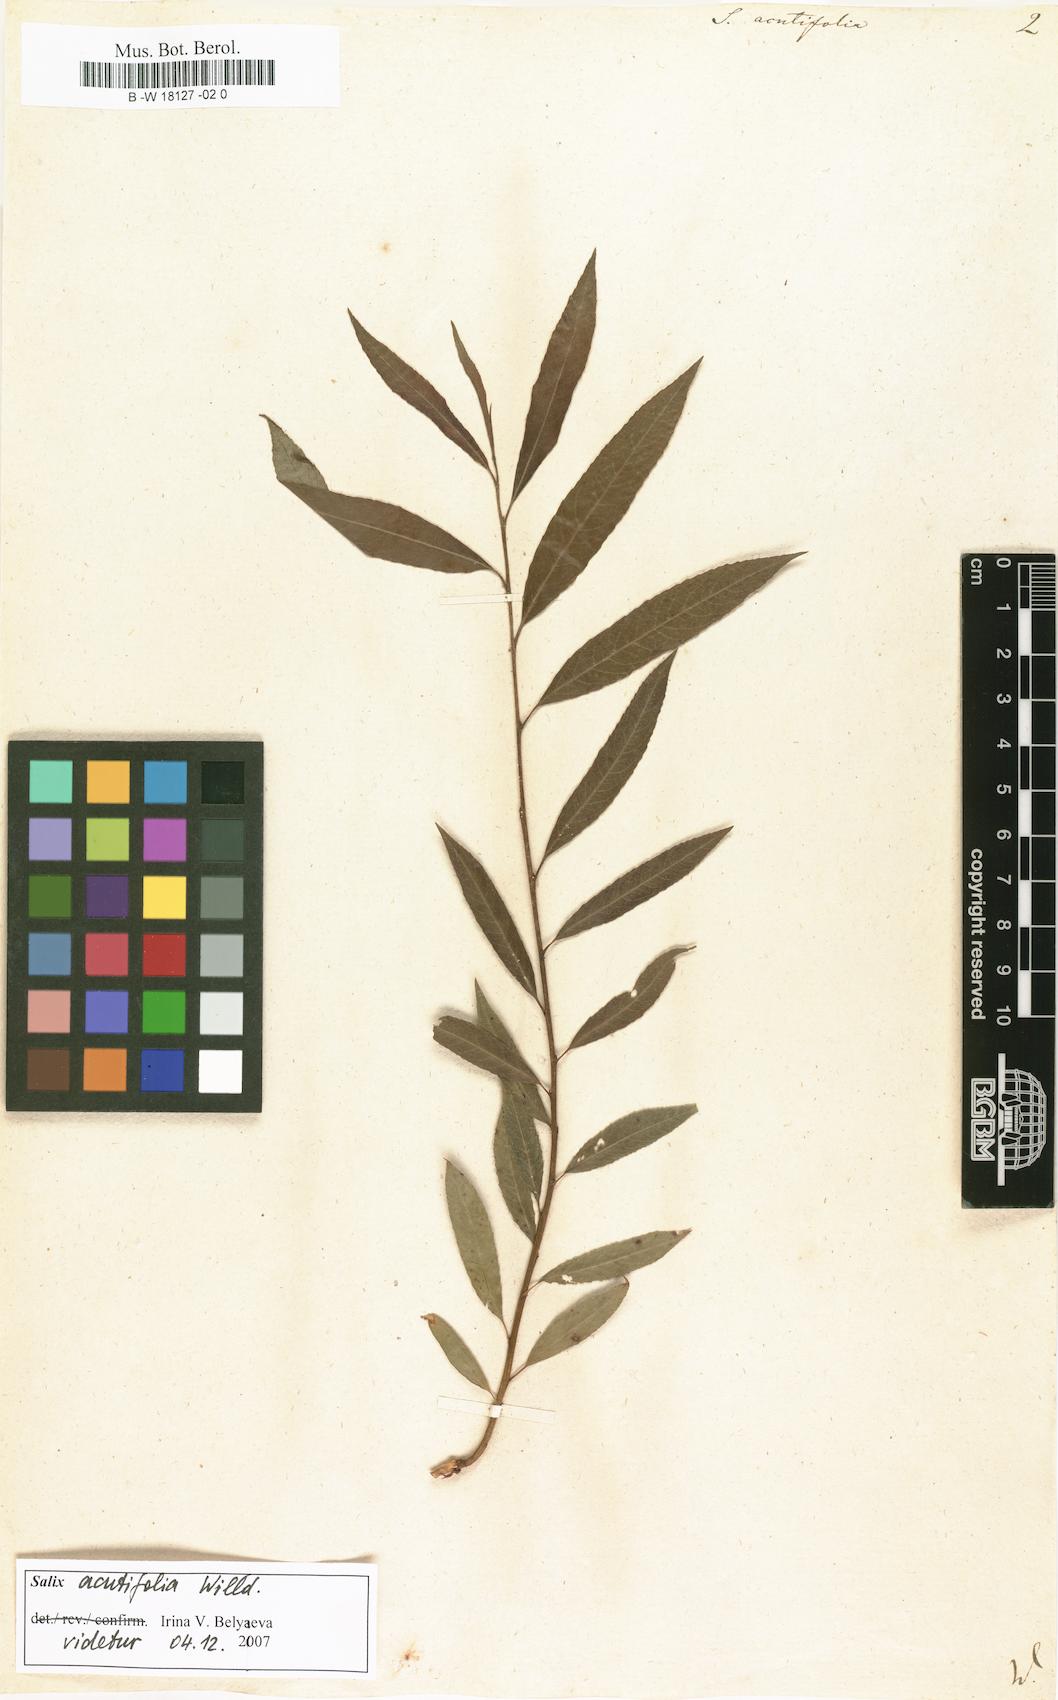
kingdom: Plantae
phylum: Tracheophyta
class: Magnoliopsida
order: Malpighiales
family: Salicaceae
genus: Salix
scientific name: Salix acutifolia
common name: Siberian violet-willow
